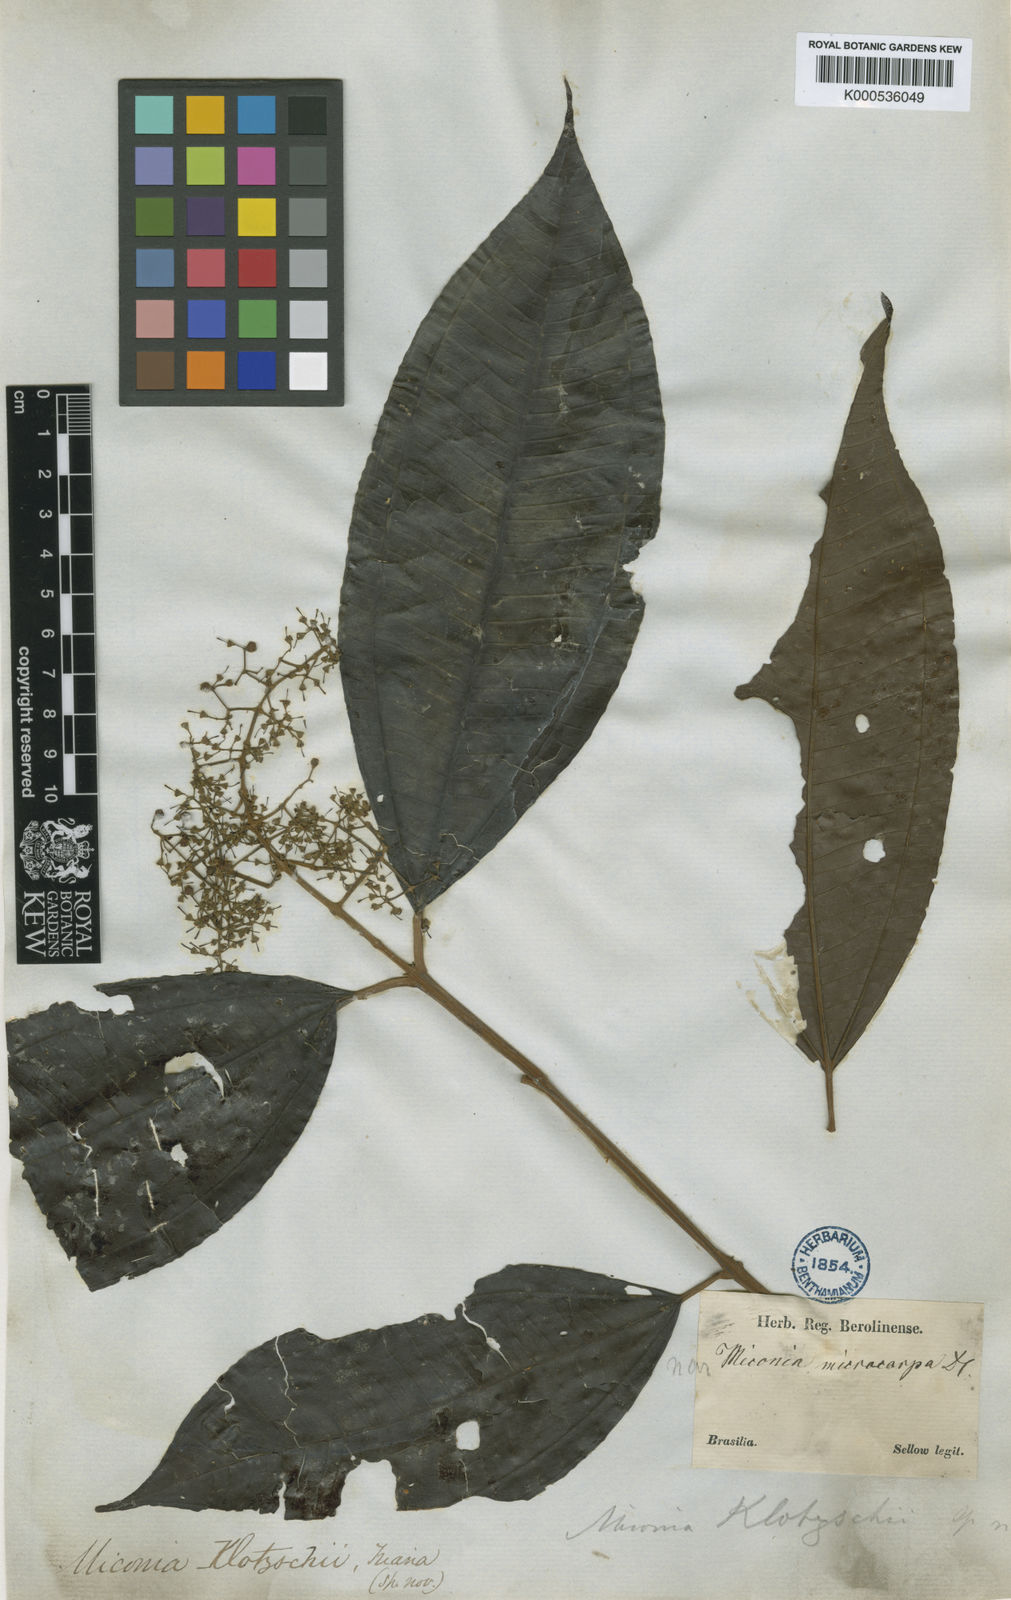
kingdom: Plantae
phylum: Tracheophyta
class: Magnoliopsida
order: Myrtales
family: Melastomataceae
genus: Miconia
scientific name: Miconia klotzschii
